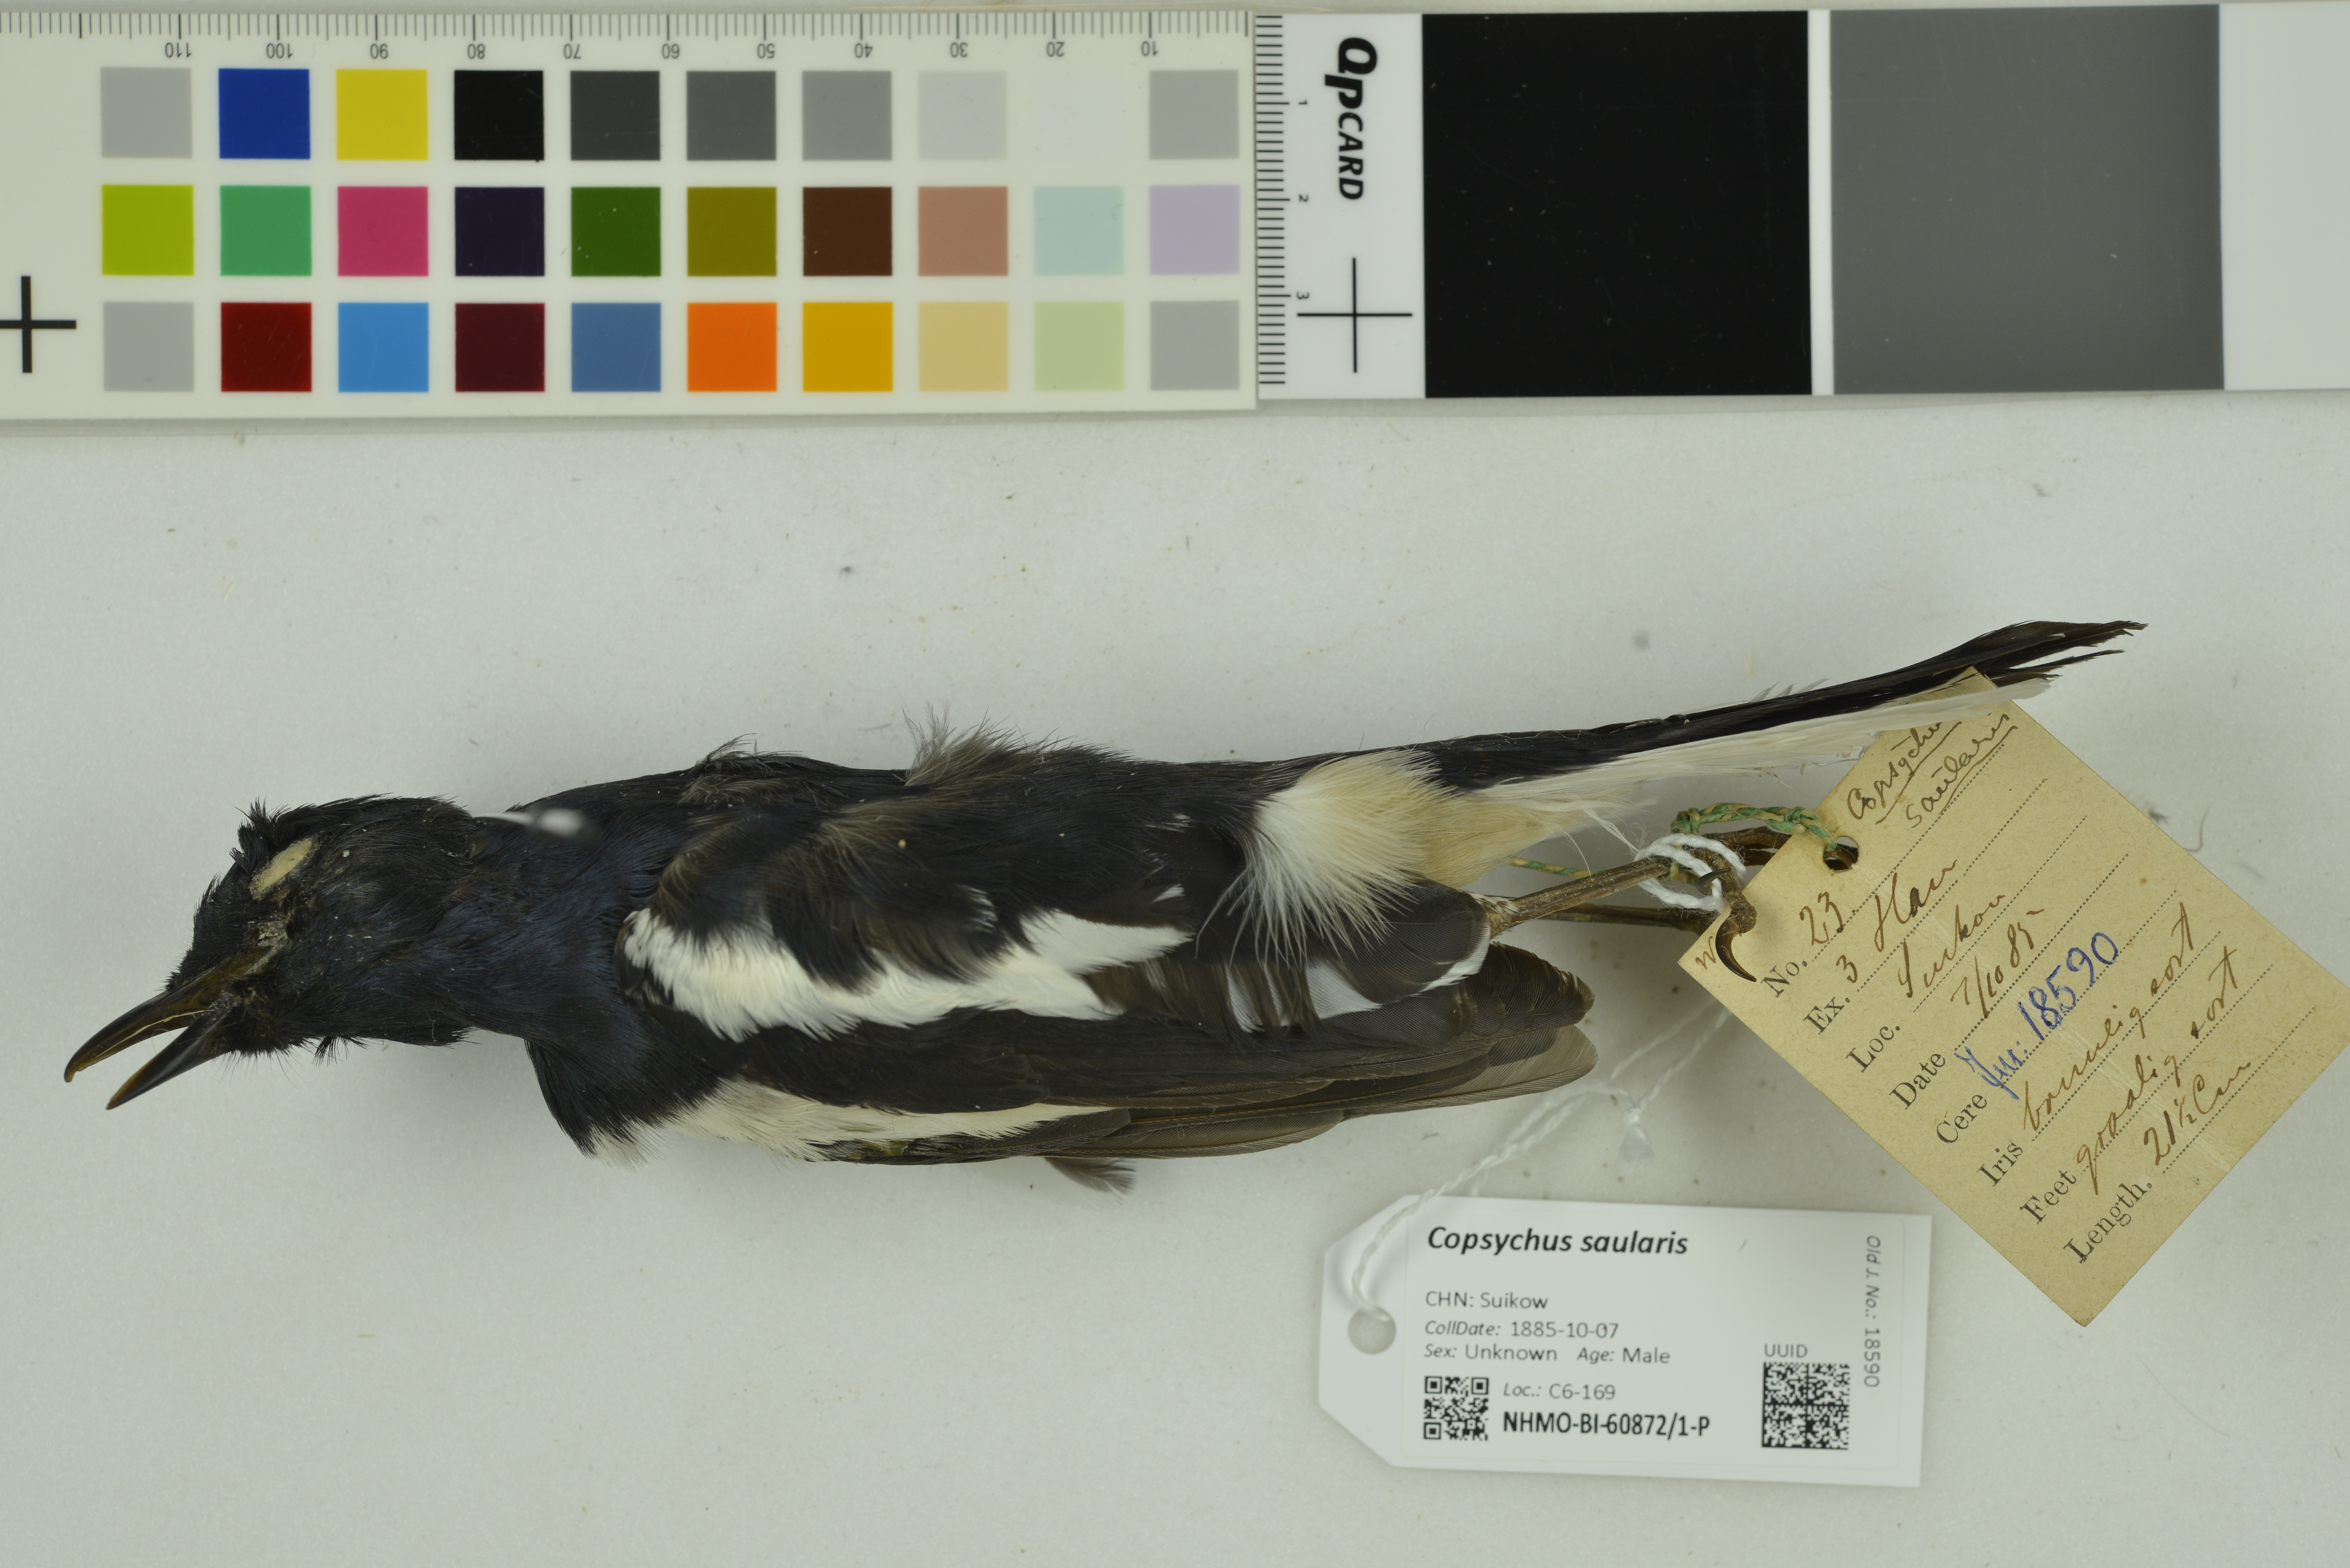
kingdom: Animalia
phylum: Chordata
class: Aves
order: Passeriformes
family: Muscicapidae
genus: Copsychus
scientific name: Copsychus saularis
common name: Oriental magpie-robin
